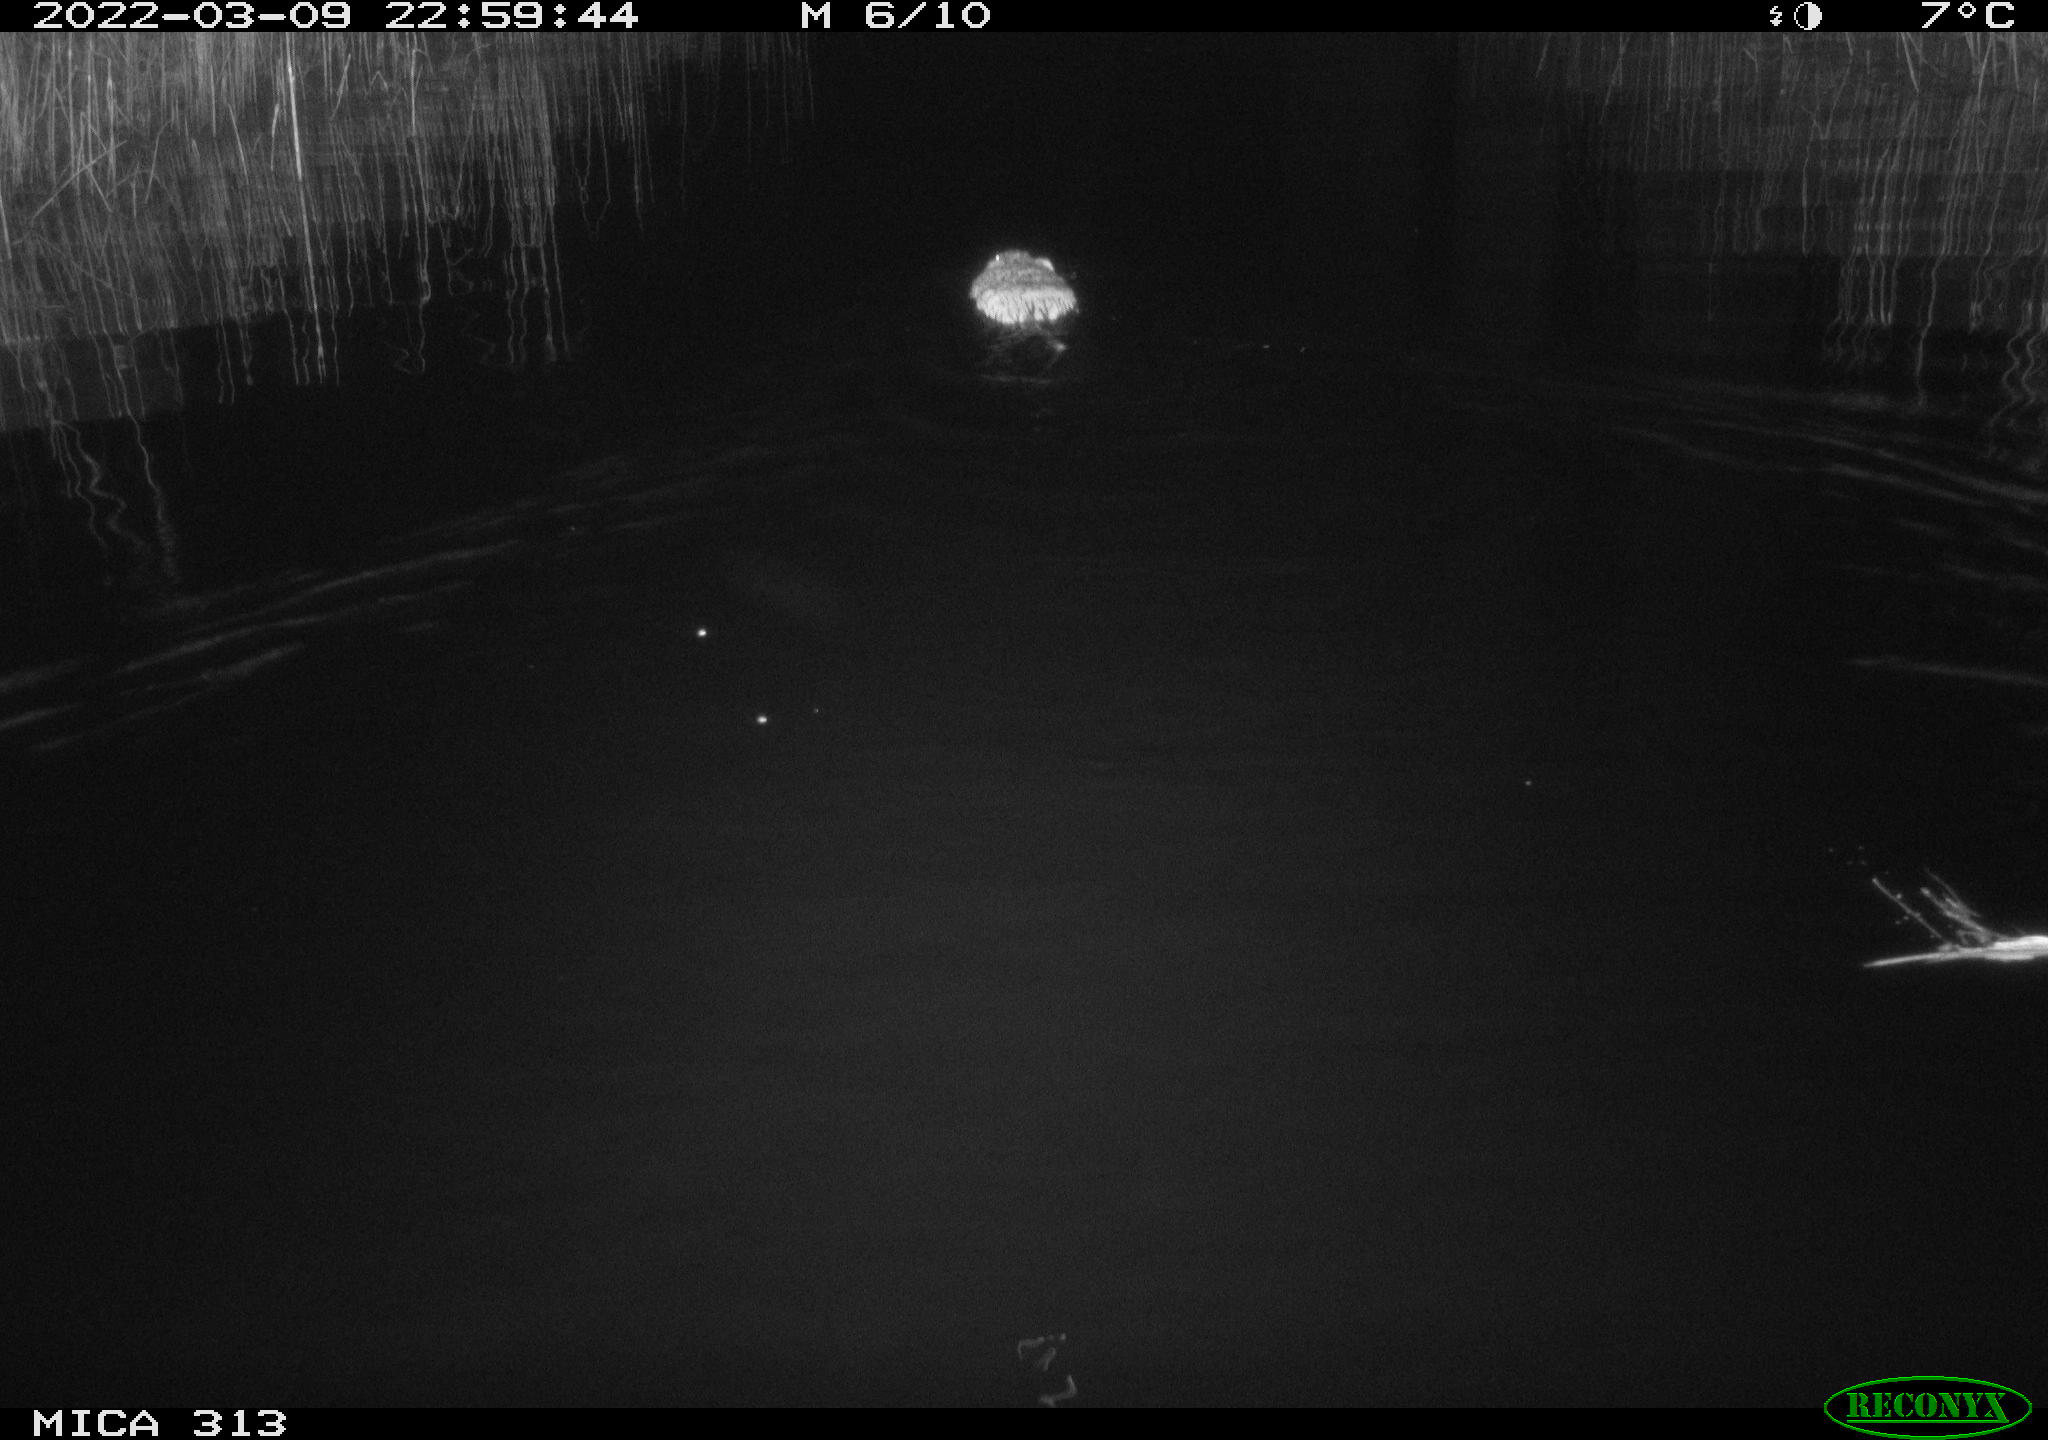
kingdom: Animalia
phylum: Chordata
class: Mammalia
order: Rodentia
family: Cricetidae
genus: Ondatra
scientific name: Ondatra zibethicus
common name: Muskrat
